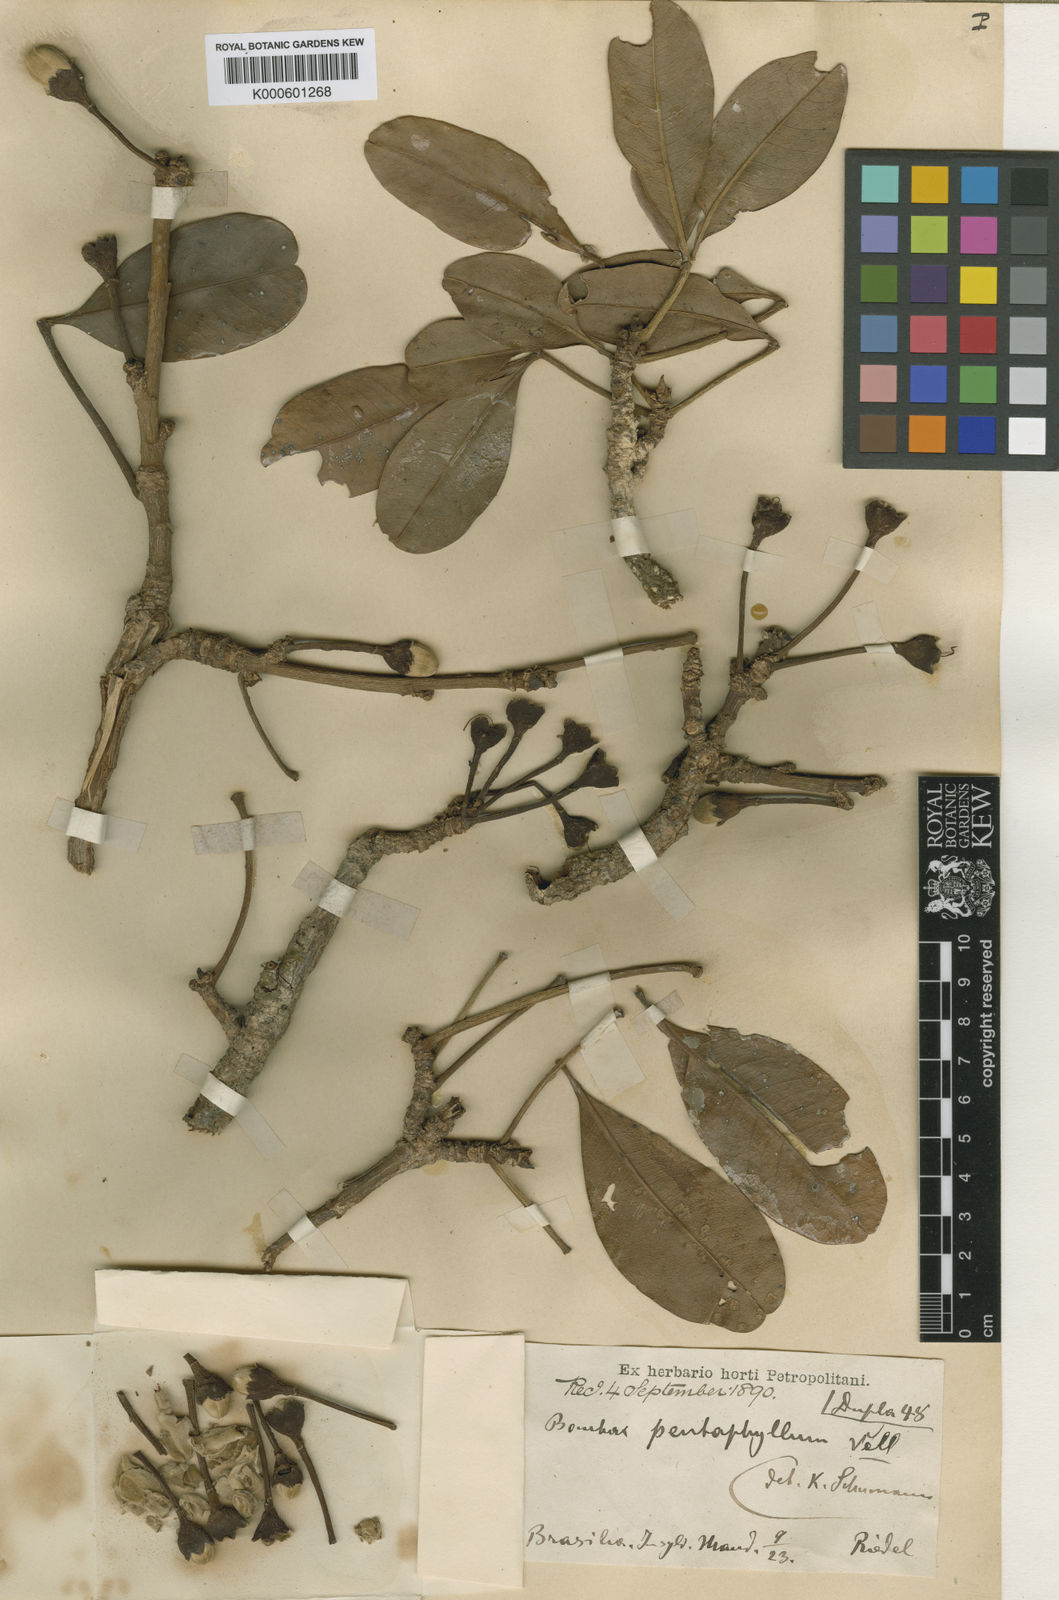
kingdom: Plantae
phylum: Tracheophyta
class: Magnoliopsida
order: Malvales
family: Malvaceae
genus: Eriotheca
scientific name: Eriotheca pentaphylla
